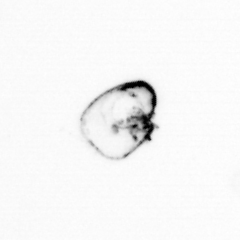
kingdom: Chromista
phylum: Ochrophyta
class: Bacillariophyceae
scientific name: Bacillariophyceae
